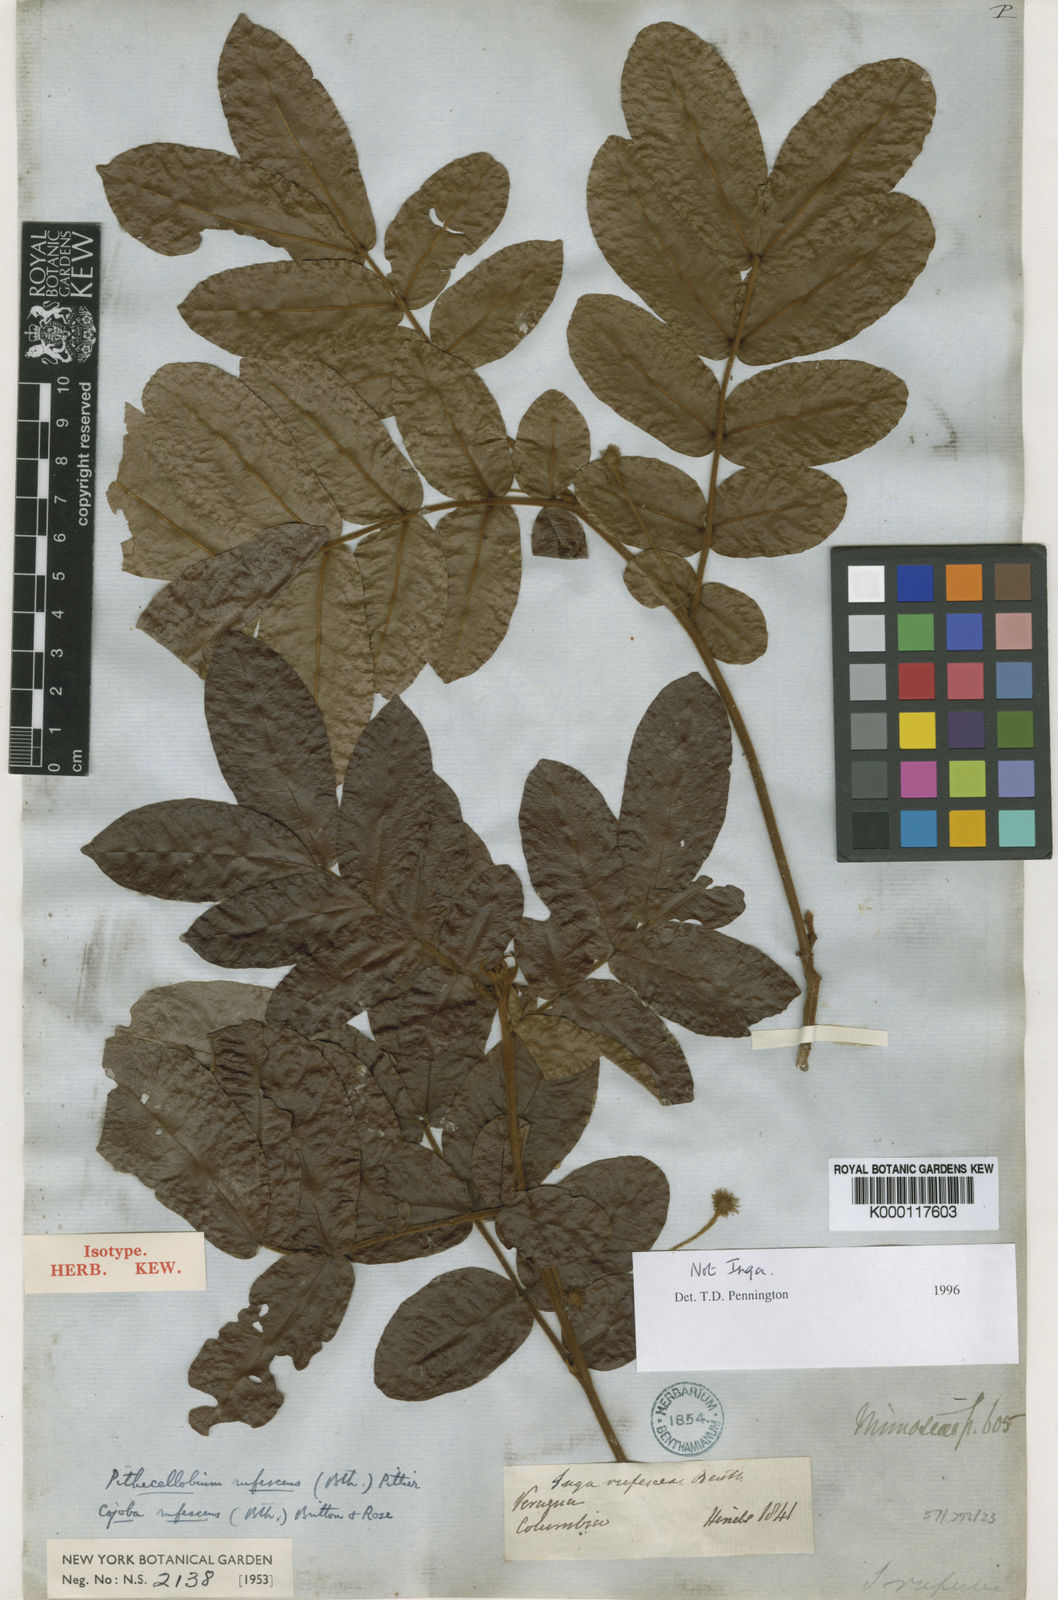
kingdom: Plantae
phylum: Tracheophyta
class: Magnoliopsida
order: Fabales
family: Fabaceae
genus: Cojoba
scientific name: Cojoba rufescens
